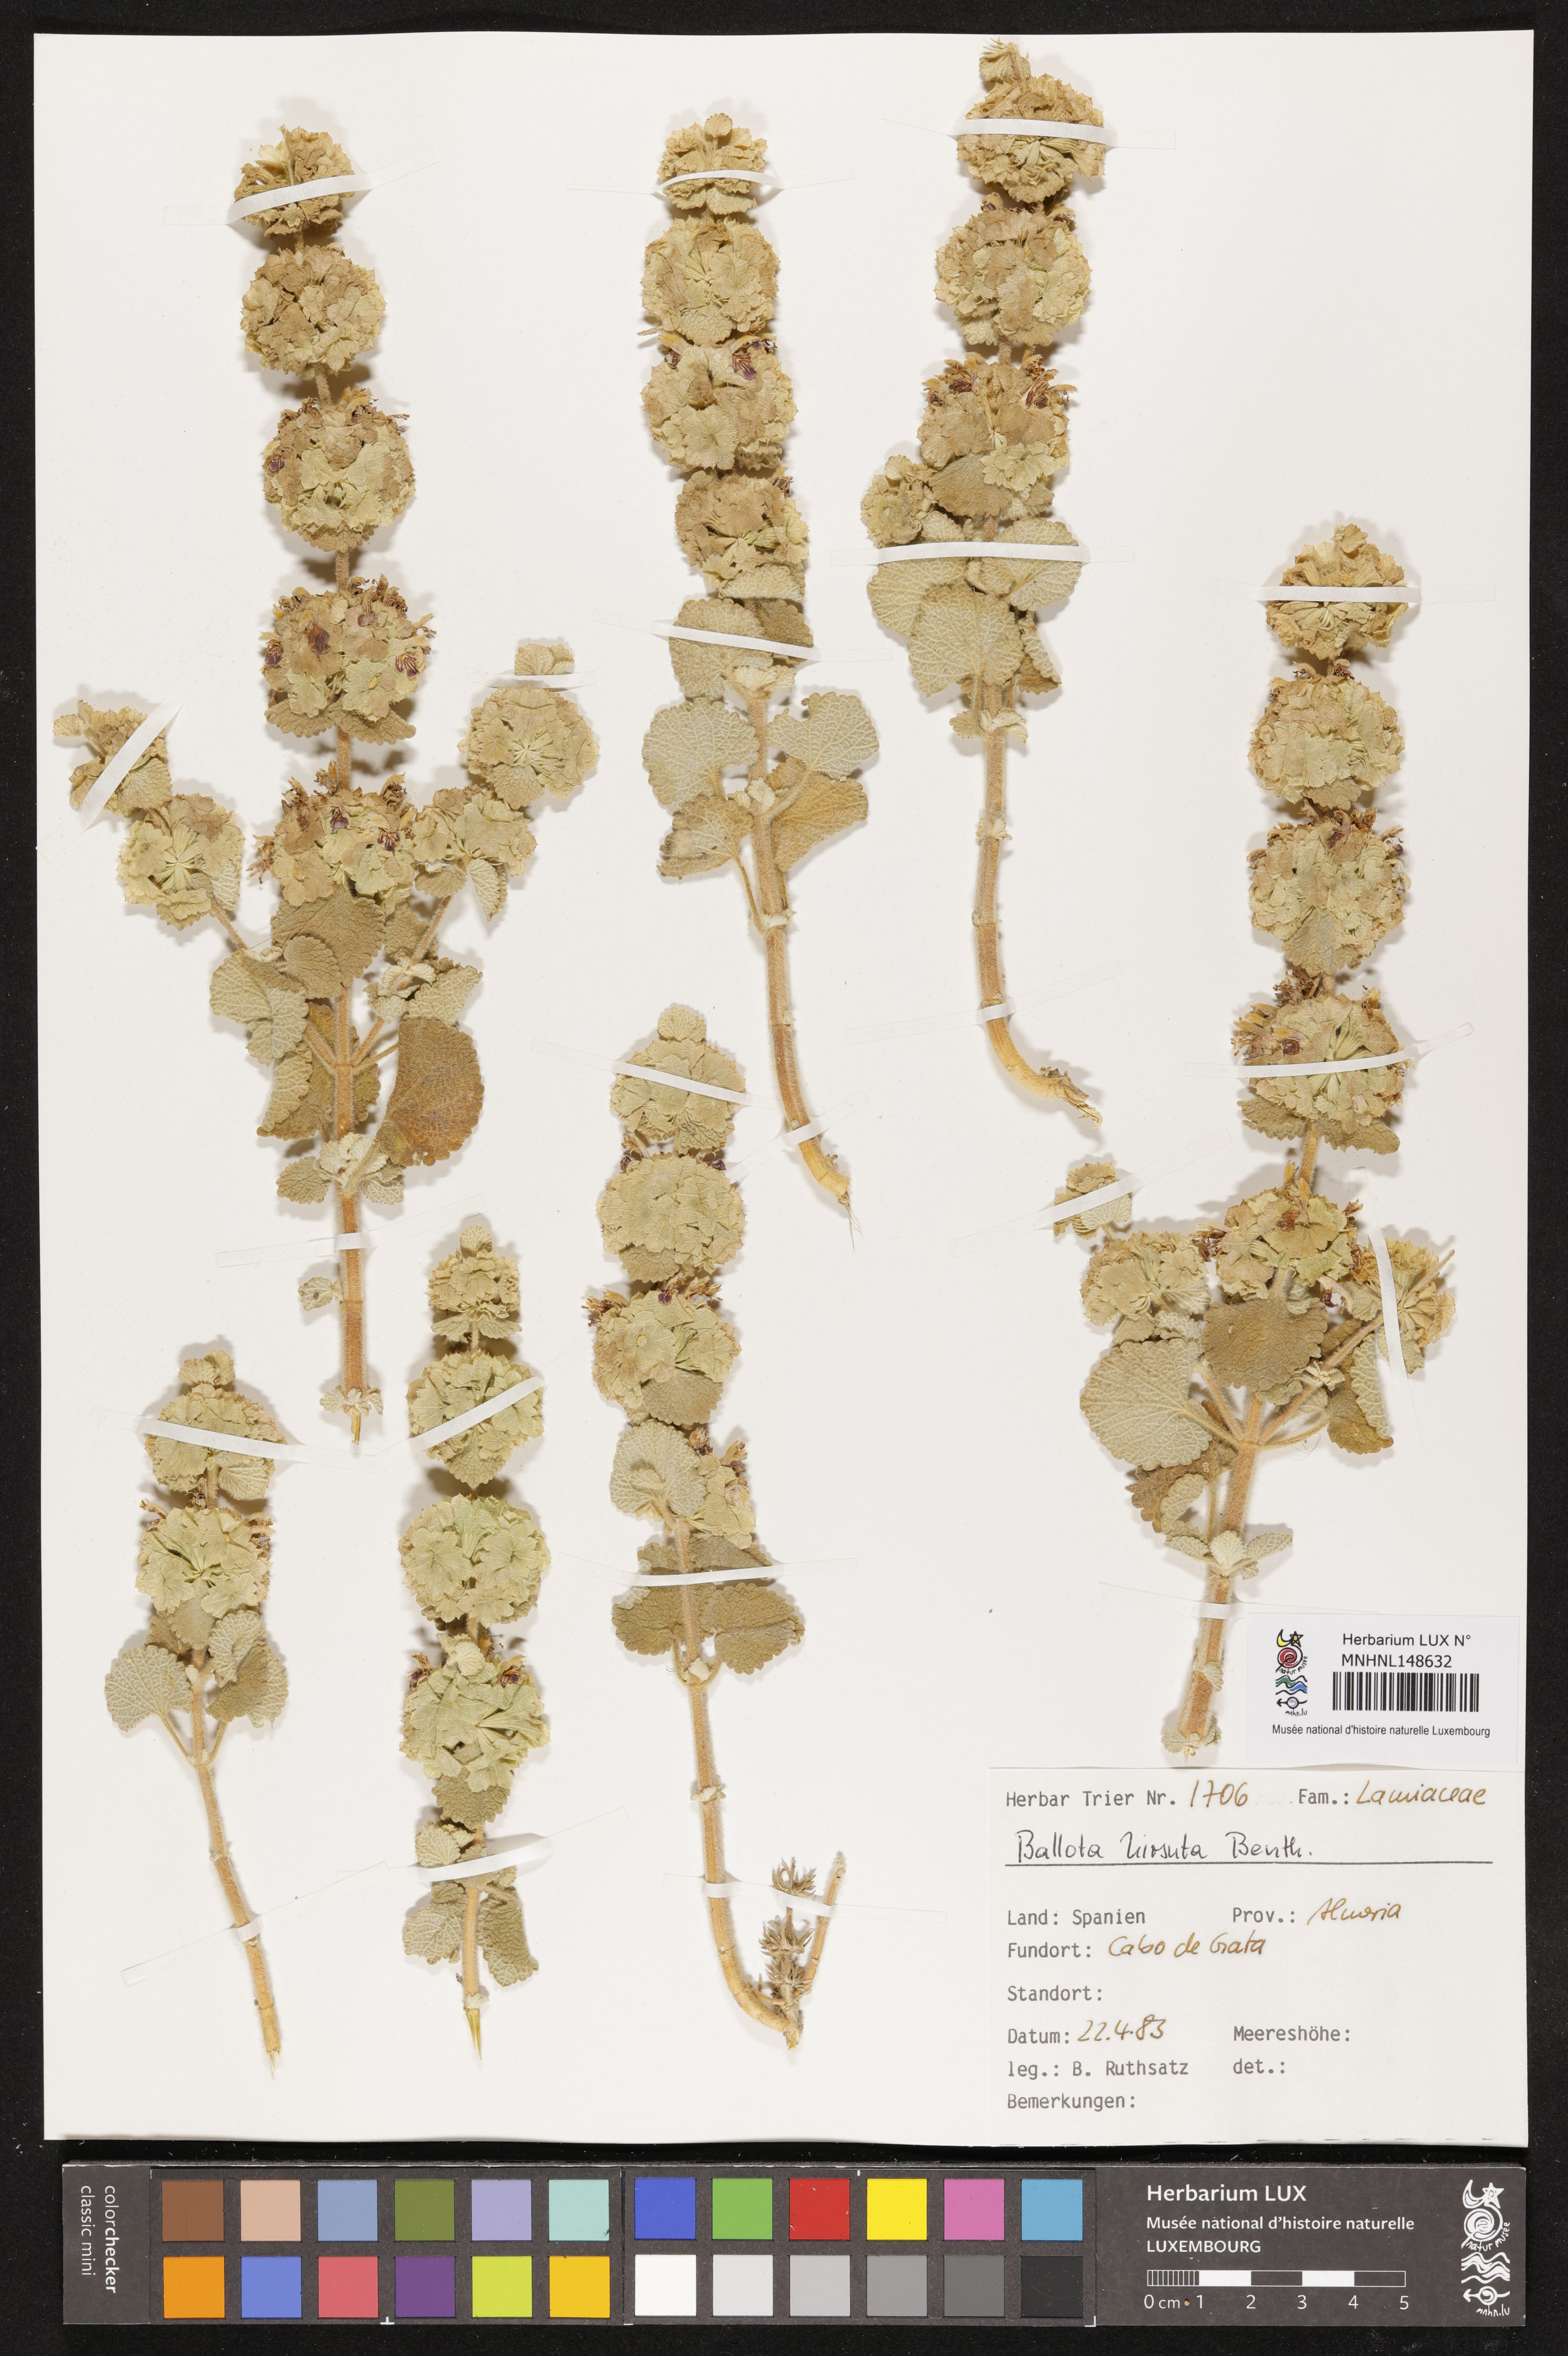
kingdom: Plantae
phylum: Tracheophyta
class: Magnoliopsida
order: Lamiales
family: Lamiaceae
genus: Pseudodictamnus
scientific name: Pseudodictamnus hirsutus
